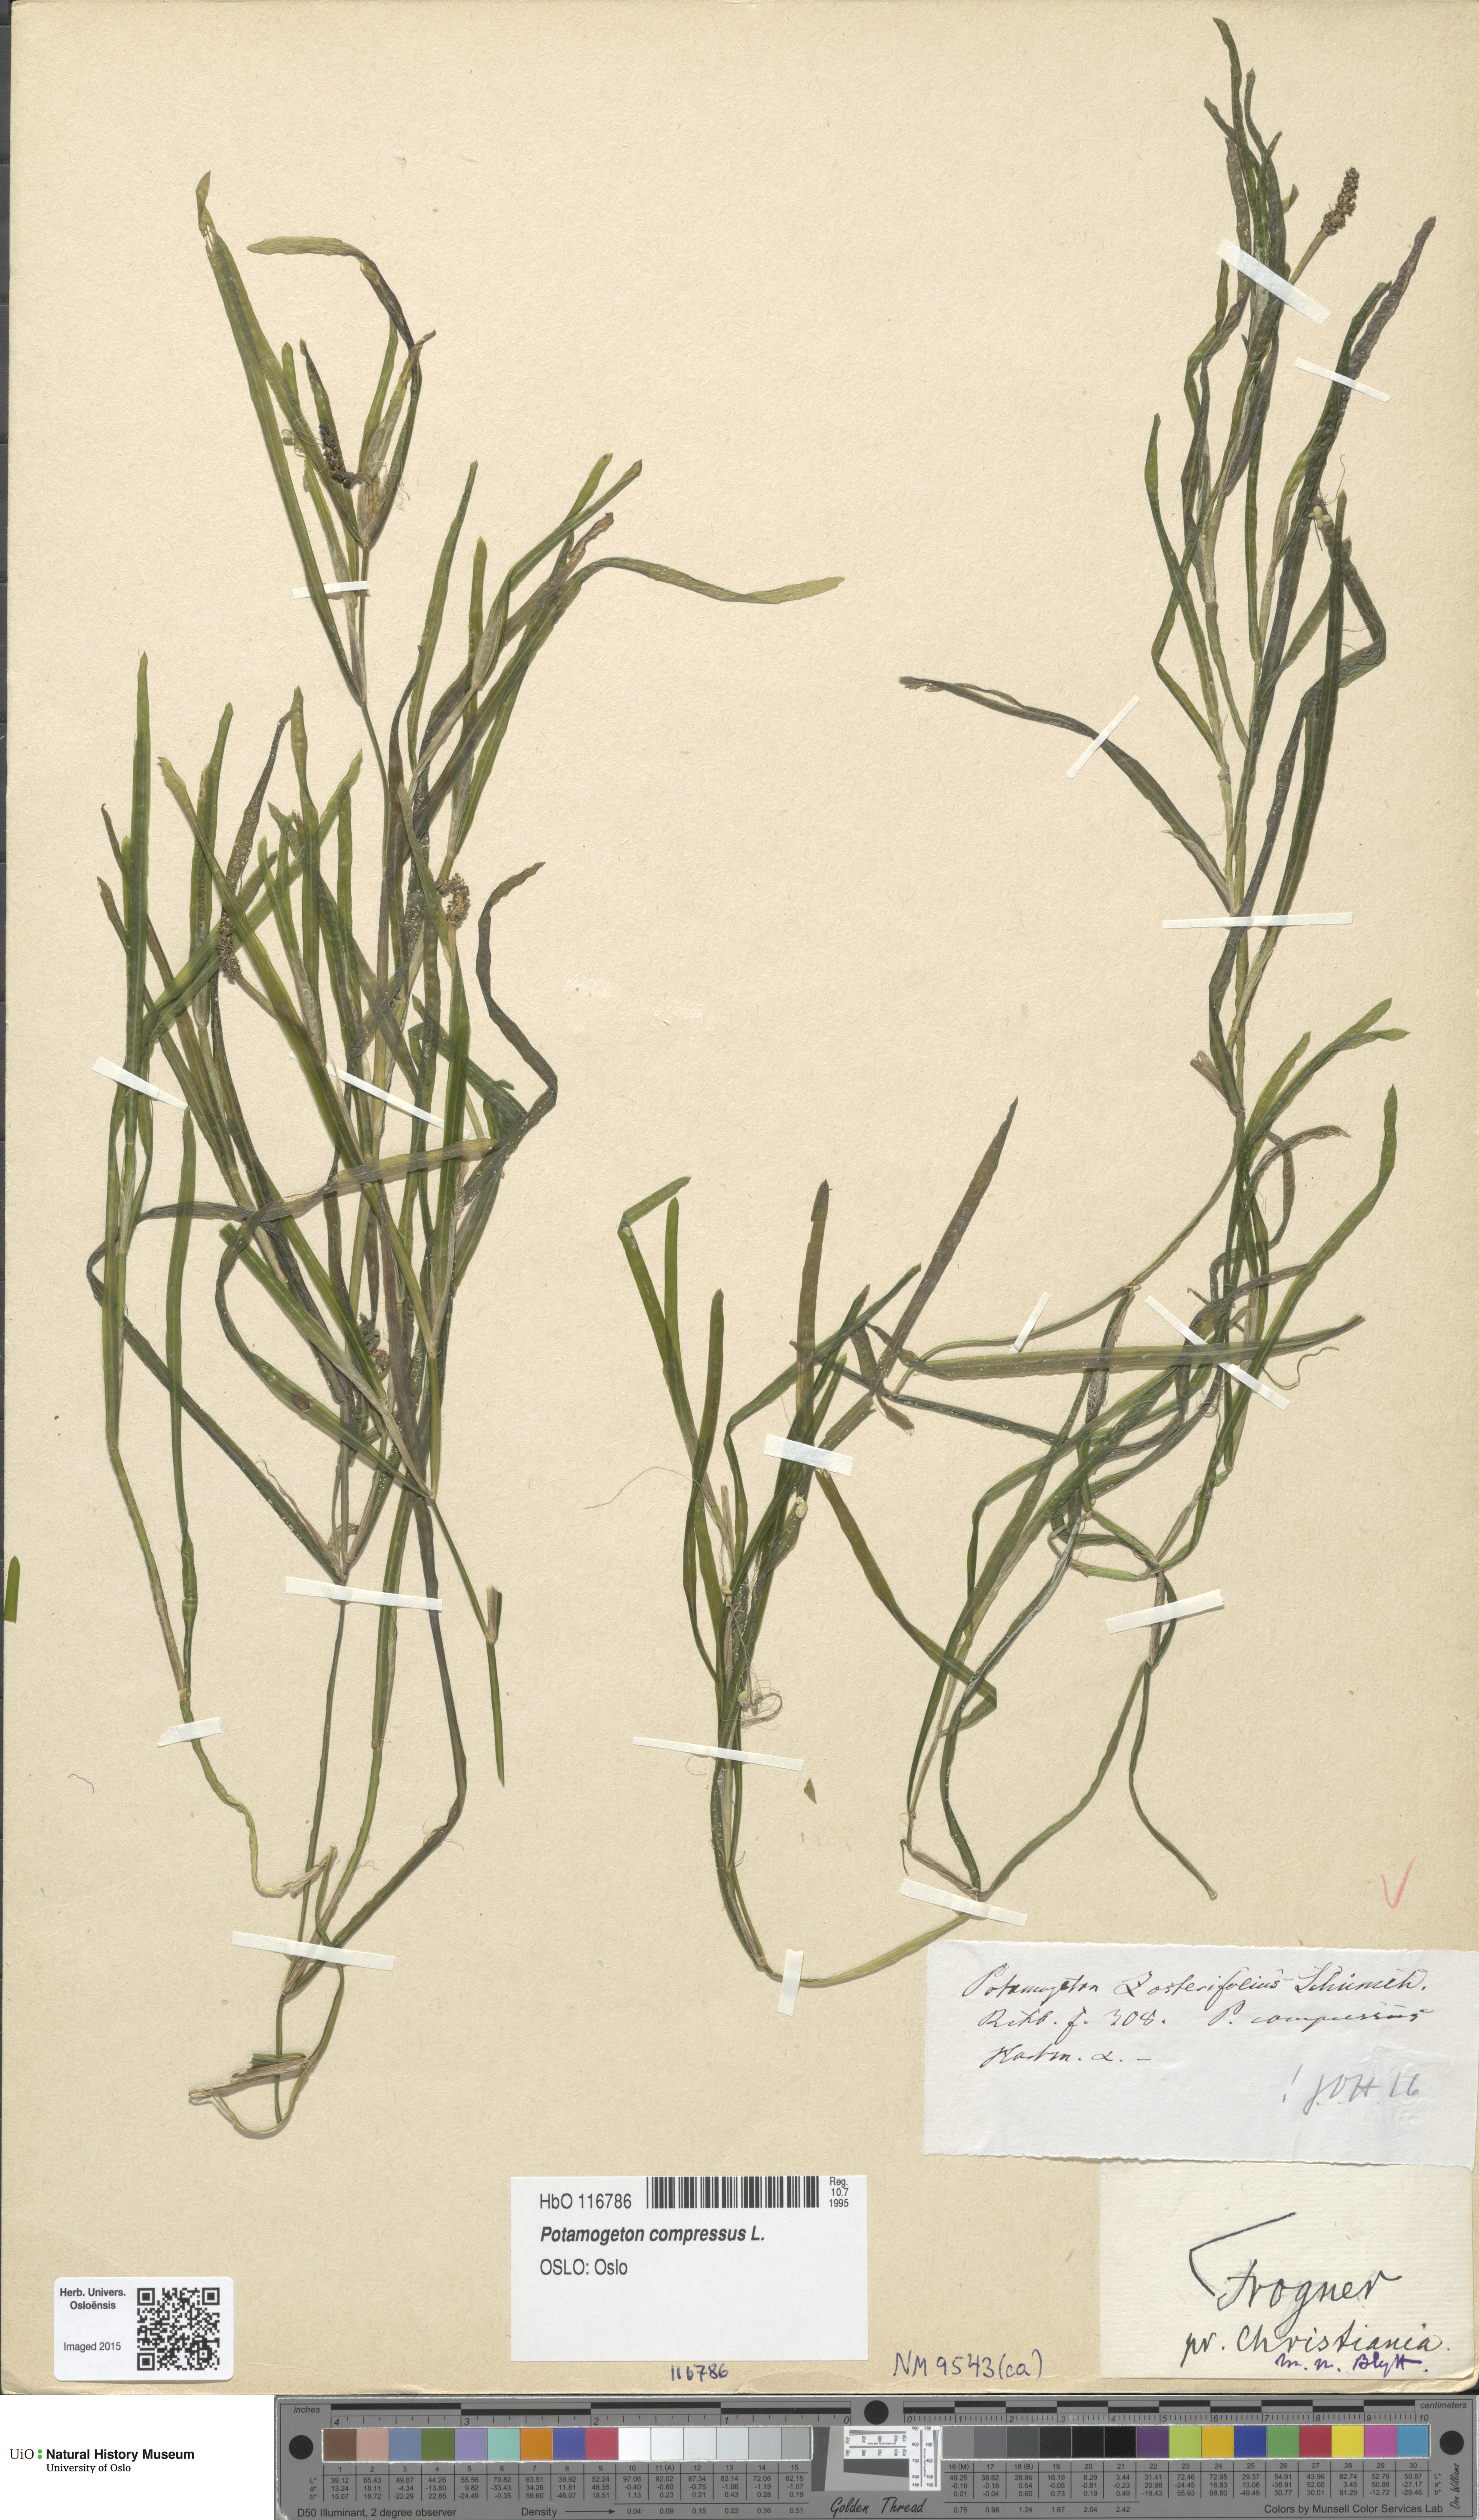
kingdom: Plantae
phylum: Tracheophyta
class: Liliopsida
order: Alismatales
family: Potamogetonaceae
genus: Potamogeton
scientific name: Potamogeton compressus
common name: Grass-wrack pondweed
